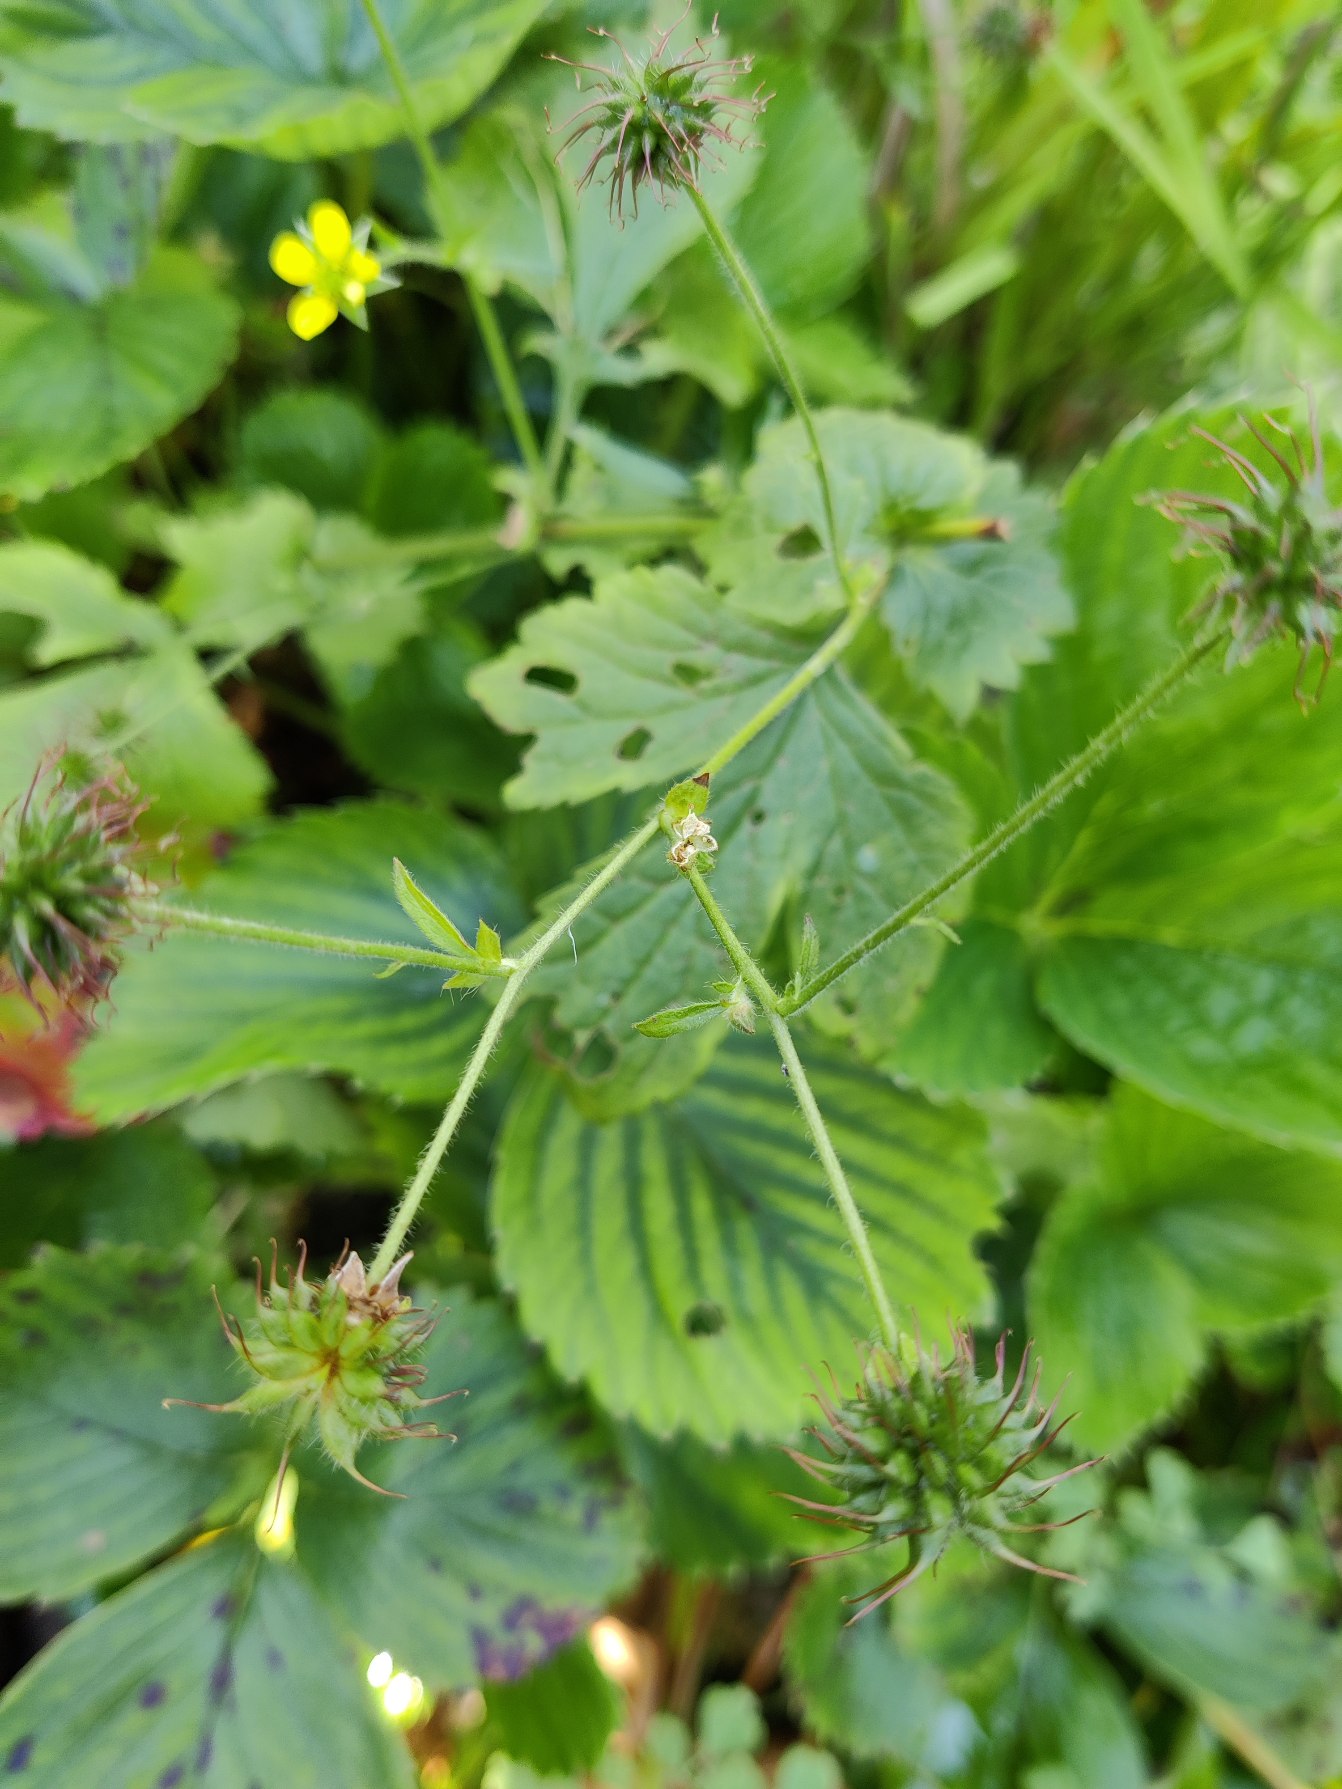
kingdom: Plantae
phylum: Tracheophyta
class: Magnoliopsida
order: Rosales
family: Rosaceae
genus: Geum
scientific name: Geum urbanum
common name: Feber-nellikerod
